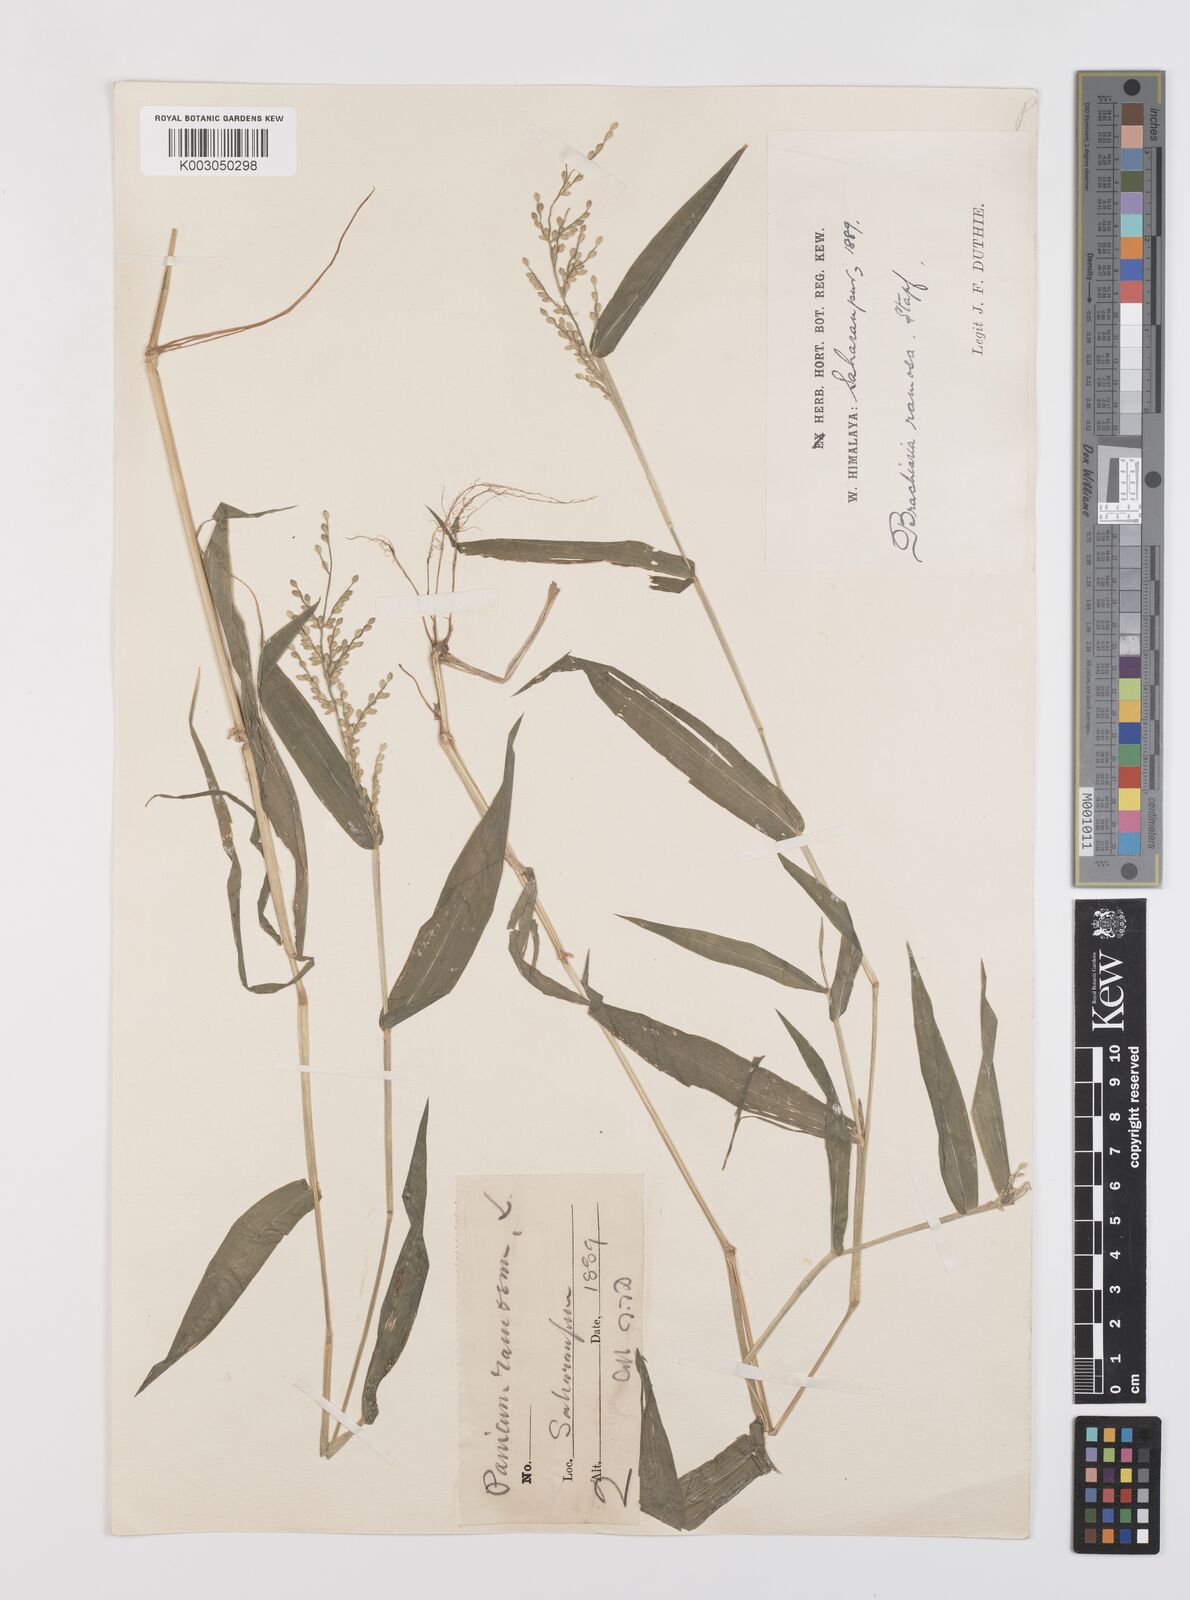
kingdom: Plantae
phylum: Tracheophyta
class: Liliopsida
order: Poales
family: Poaceae
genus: Urochloa
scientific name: Urochloa ramosa
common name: Browntop millet
